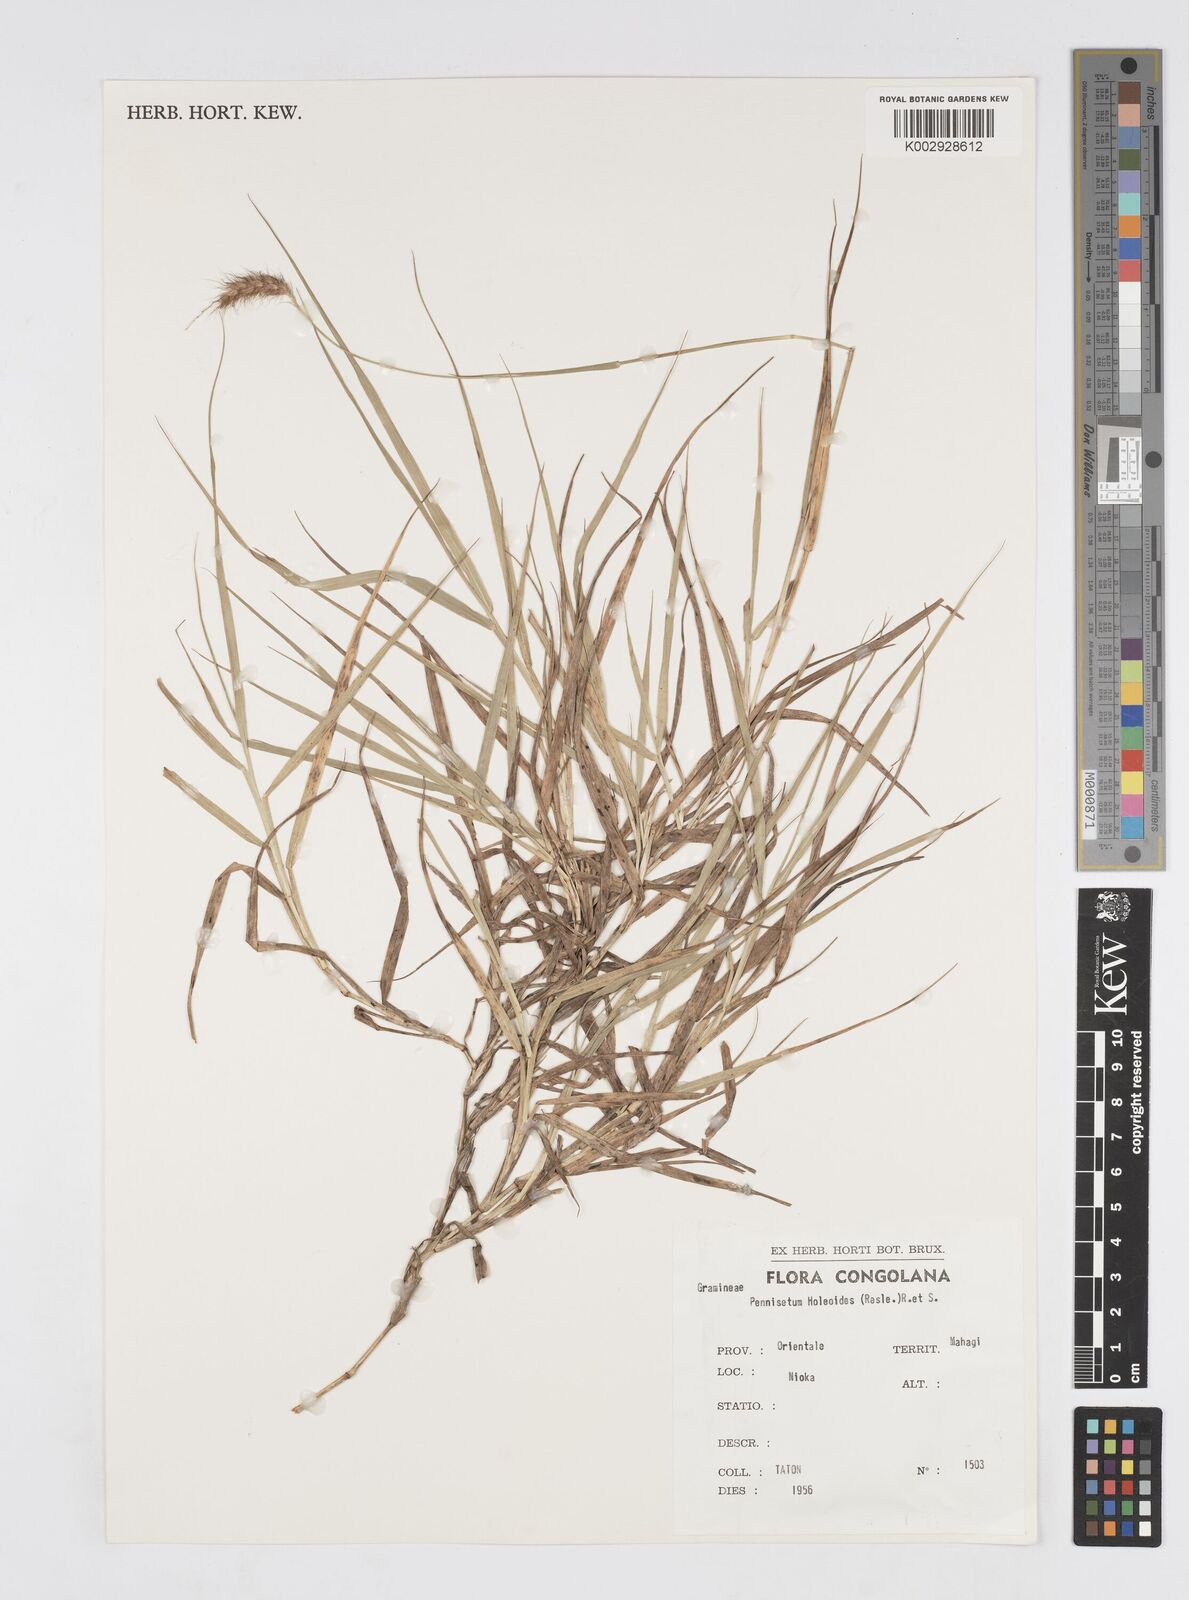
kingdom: Plantae
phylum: Tracheophyta
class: Liliopsida
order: Poales
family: Poaceae
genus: Cenchrus
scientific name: Cenchrus ciliaris
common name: Buffelgrass
